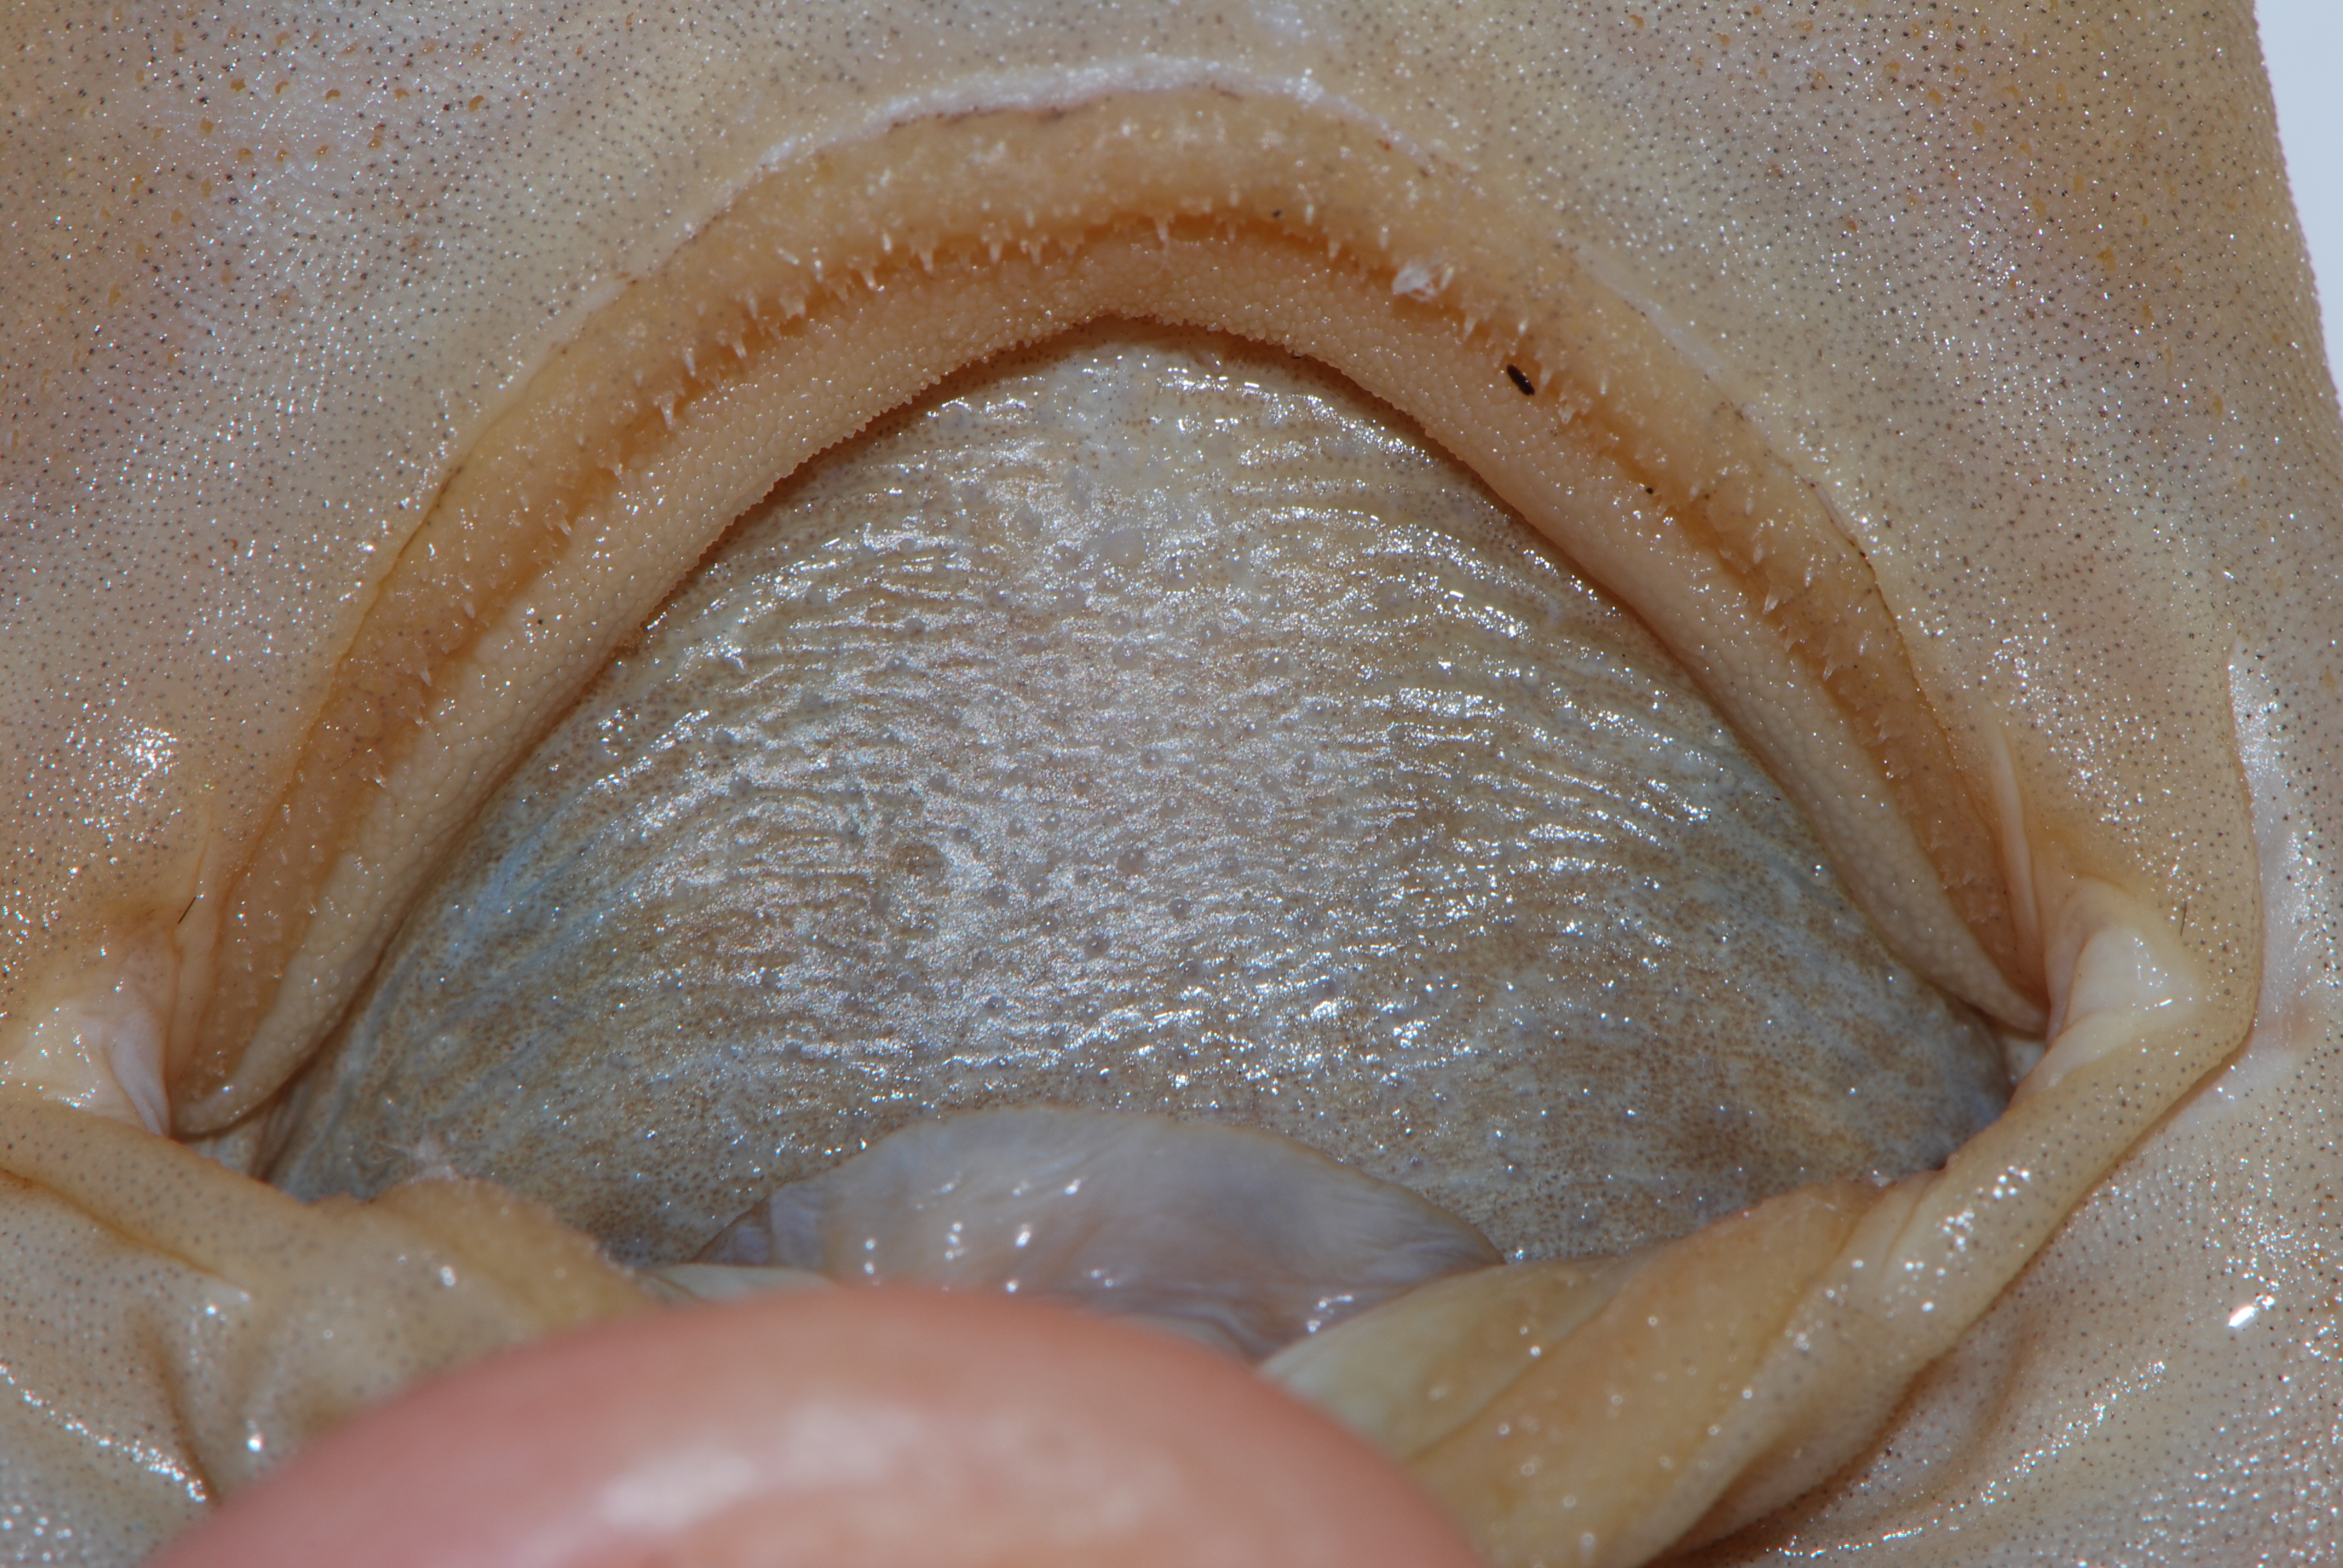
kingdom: Animalia
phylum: Chordata
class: Elasmobranchii
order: Carcharhiniformes
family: Scyliorhinidae
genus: Bythaelurus
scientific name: Bythaelurus hispidus
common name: Bristly catshark
